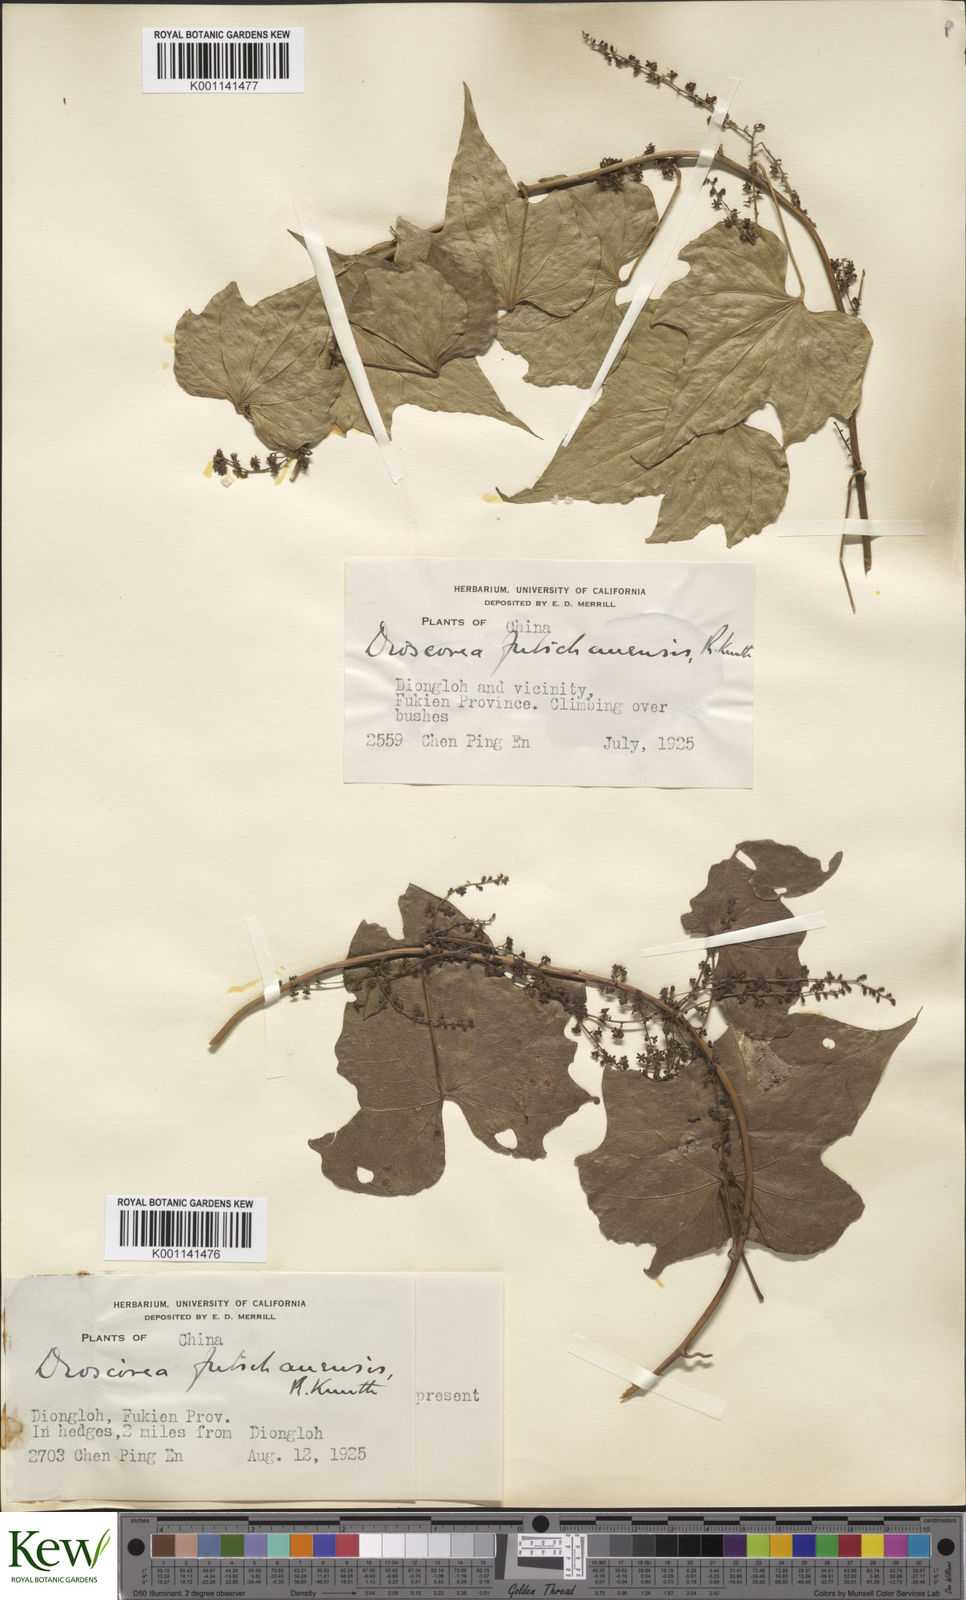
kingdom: Plantae
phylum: Tracheophyta
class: Liliopsida
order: Dioscoreales
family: Dioscoreaceae
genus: Dioscorea
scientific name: Dioscorea futschauensis
